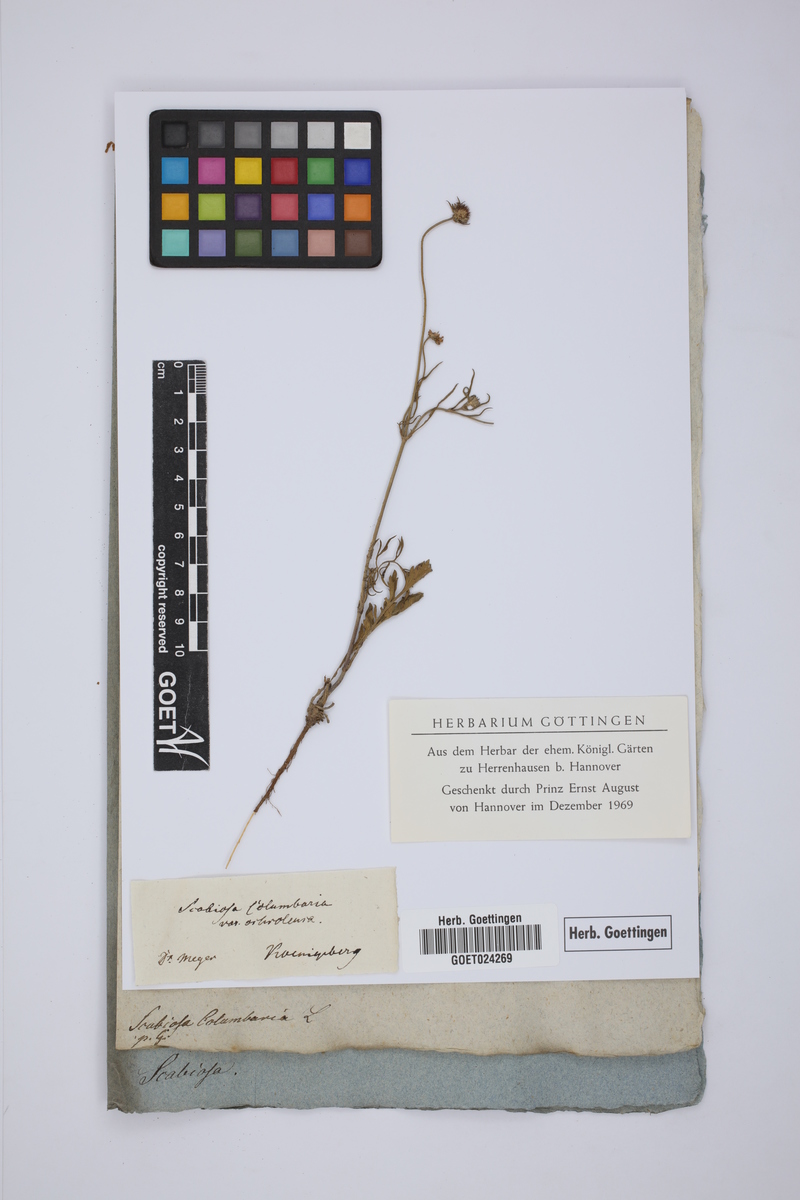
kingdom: Plantae
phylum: Tracheophyta
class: Magnoliopsida
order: Dipsacales
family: Caprifoliaceae
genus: Scabiosa
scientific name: Scabiosa columbaria
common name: Small scabious
